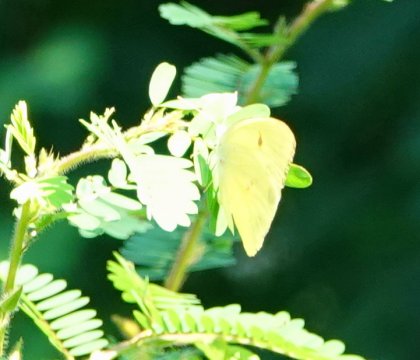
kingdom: Animalia
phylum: Arthropoda
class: Insecta
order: Lepidoptera
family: Pieridae
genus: Phoebis
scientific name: Phoebis sennae
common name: Cloudless Sulphur
